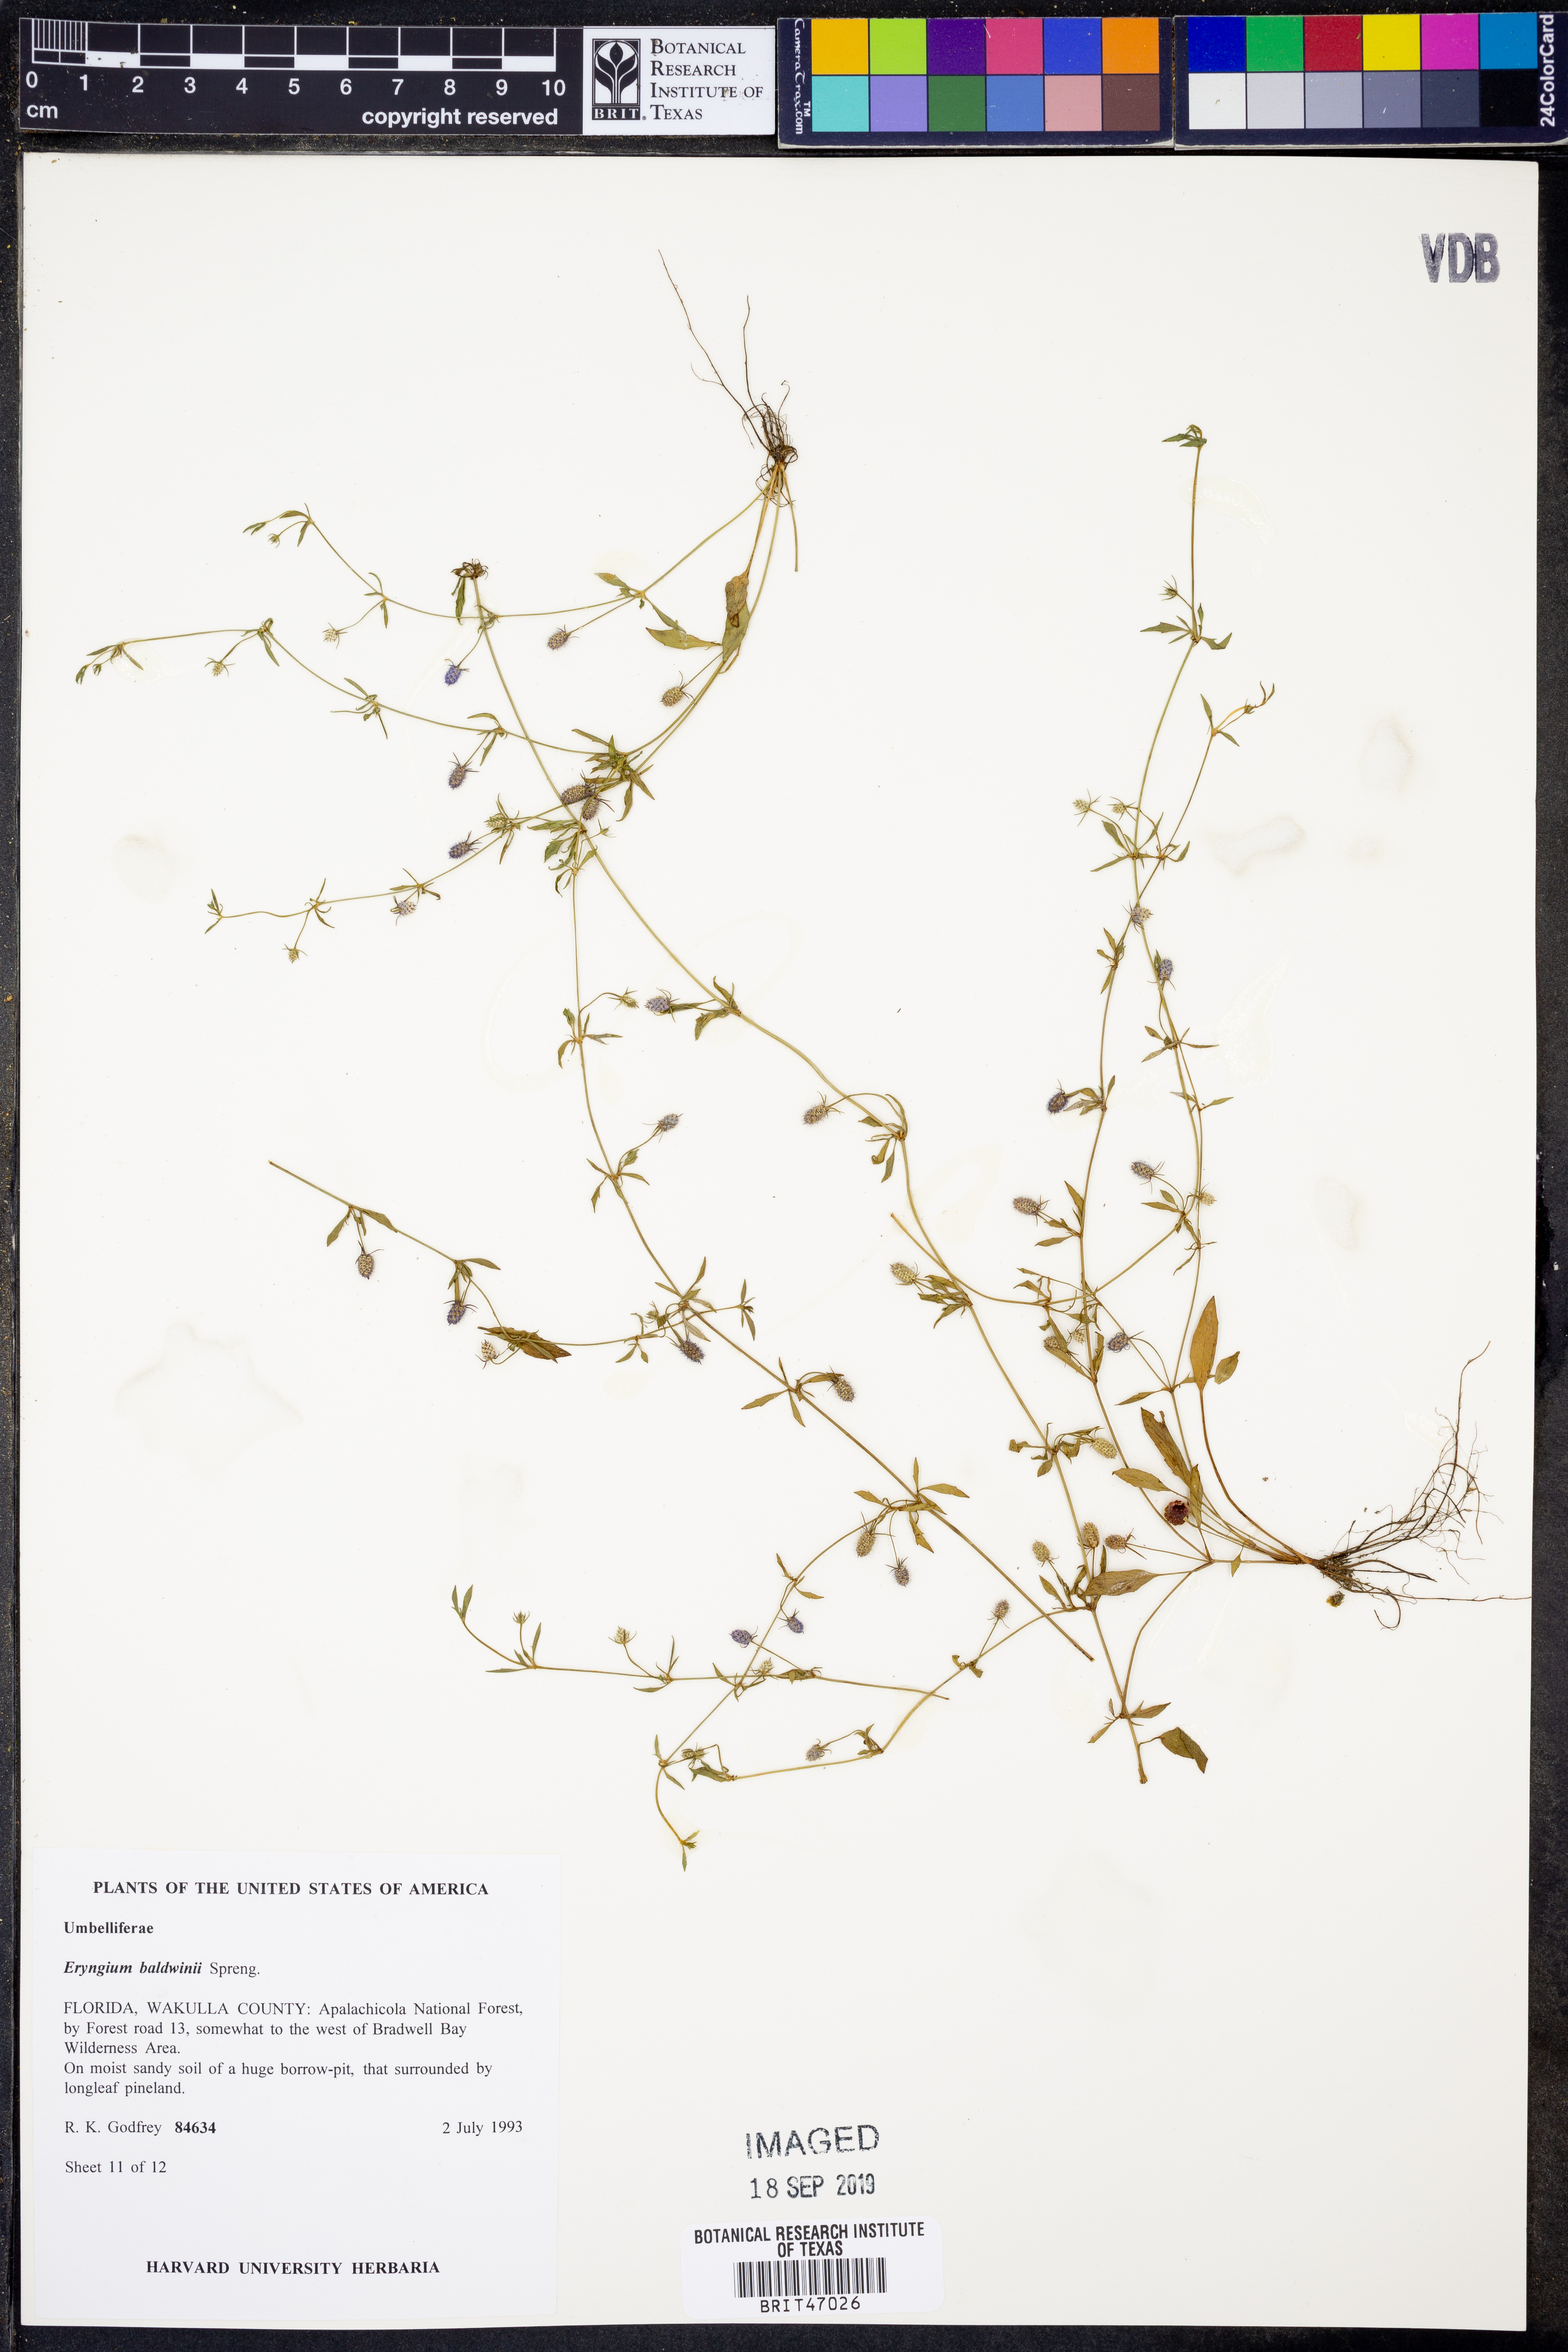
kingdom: Plantae
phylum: Tracheophyta
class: Magnoliopsida
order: Apiales
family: Apiaceae
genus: Eryngium
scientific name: Eryngium baldwinii
